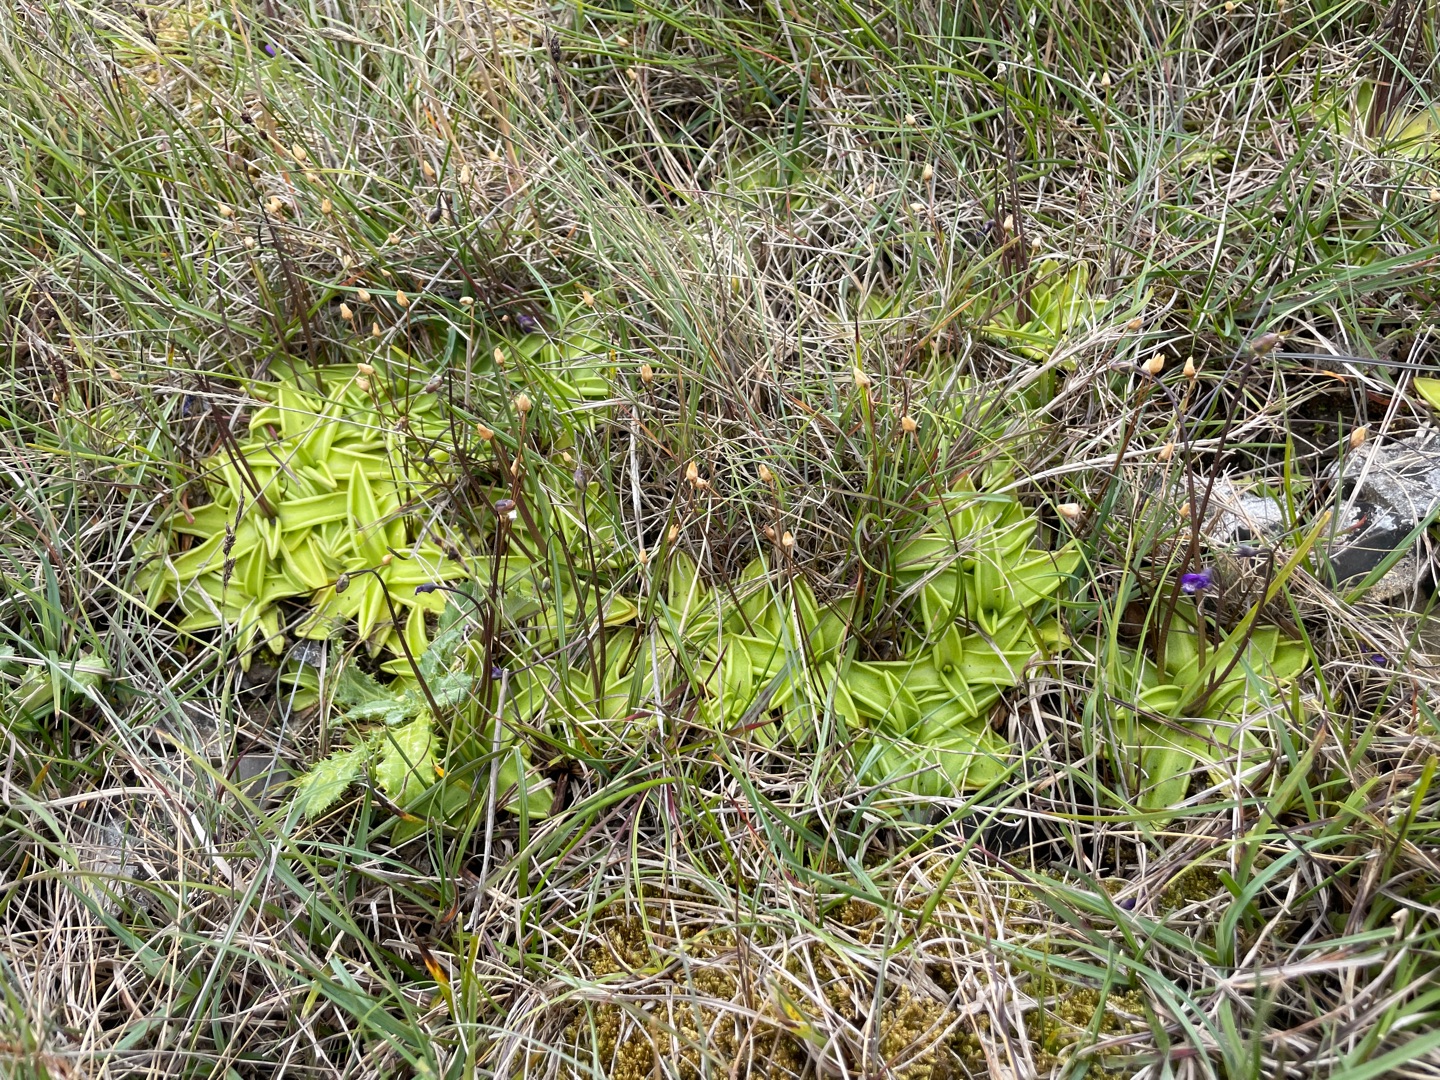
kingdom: Plantae
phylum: Tracheophyta
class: Magnoliopsida
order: Lamiales
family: Lentibulariaceae
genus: Pinguicula
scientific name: Pinguicula vulgaris
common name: Vibefedt
